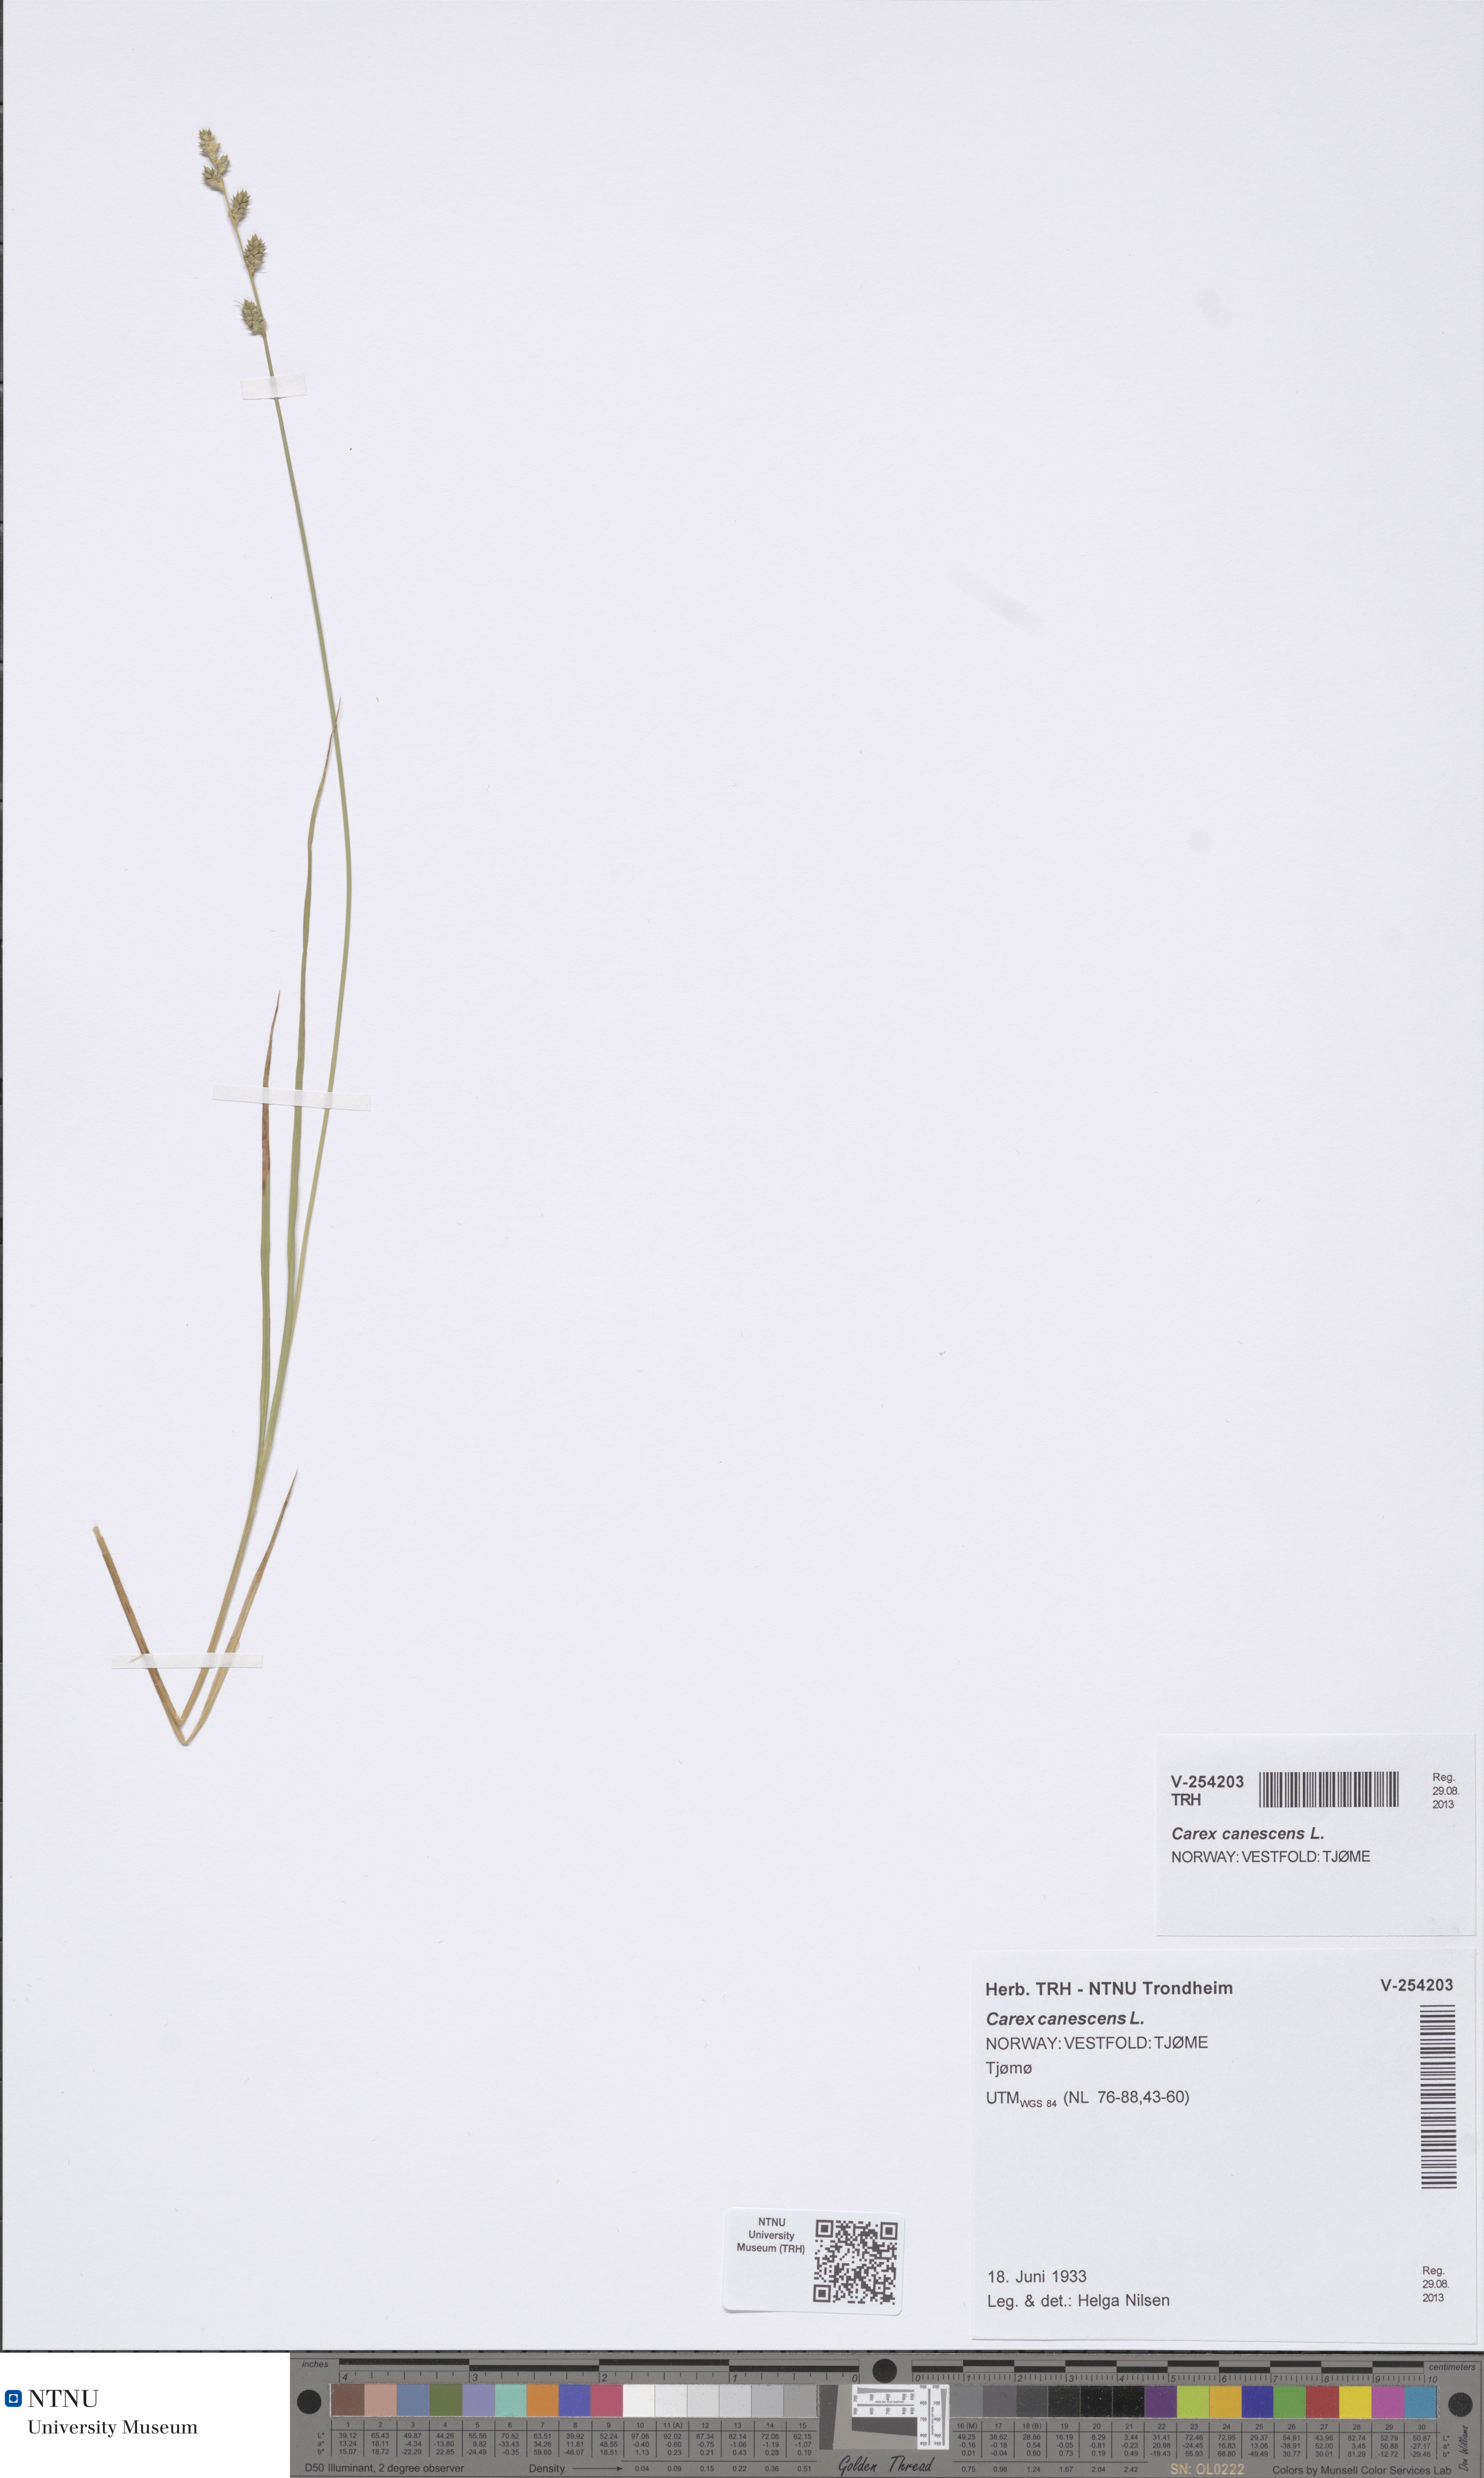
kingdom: Plantae
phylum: Tracheophyta
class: Liliopsida
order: Poales
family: Cyperaceae
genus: Carex
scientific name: Carex canescens
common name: White sedge
